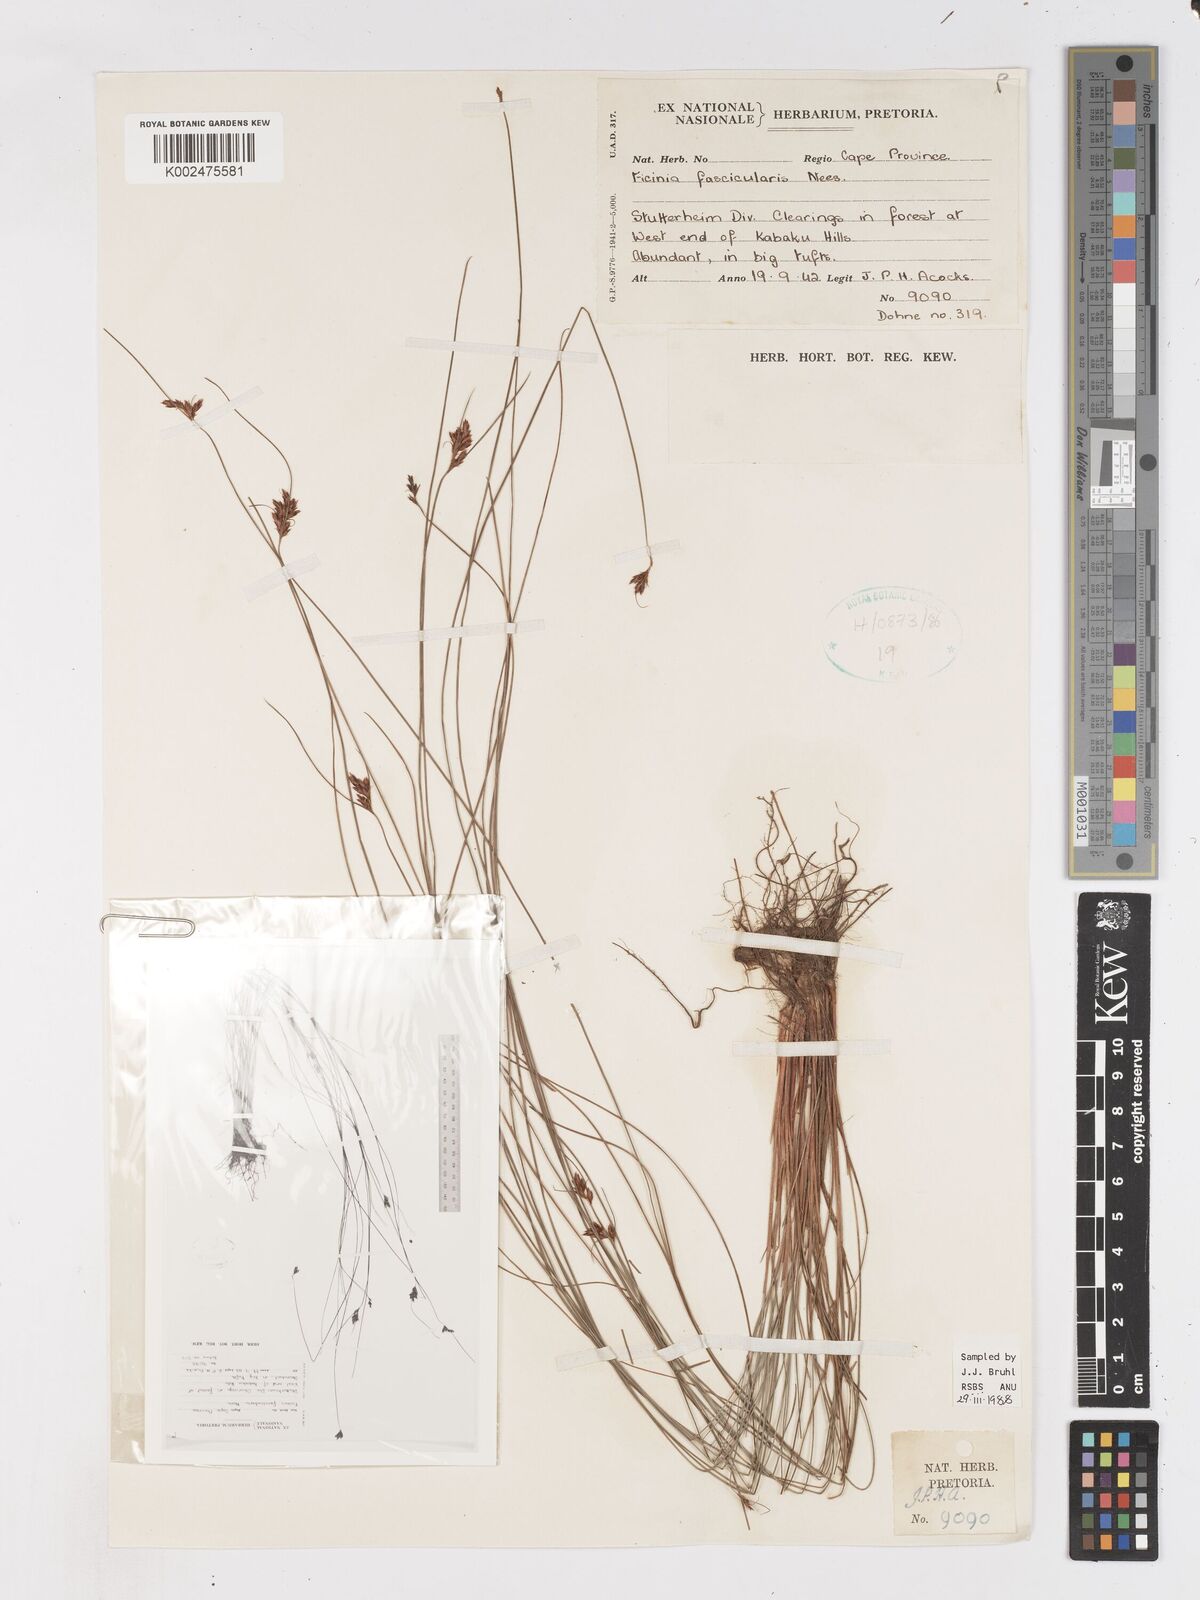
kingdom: Plantae
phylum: Tracheophyta
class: Liliopsida
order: Poales
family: Cyperaceae
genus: Ficinia
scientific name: Ficinia fascicularis
